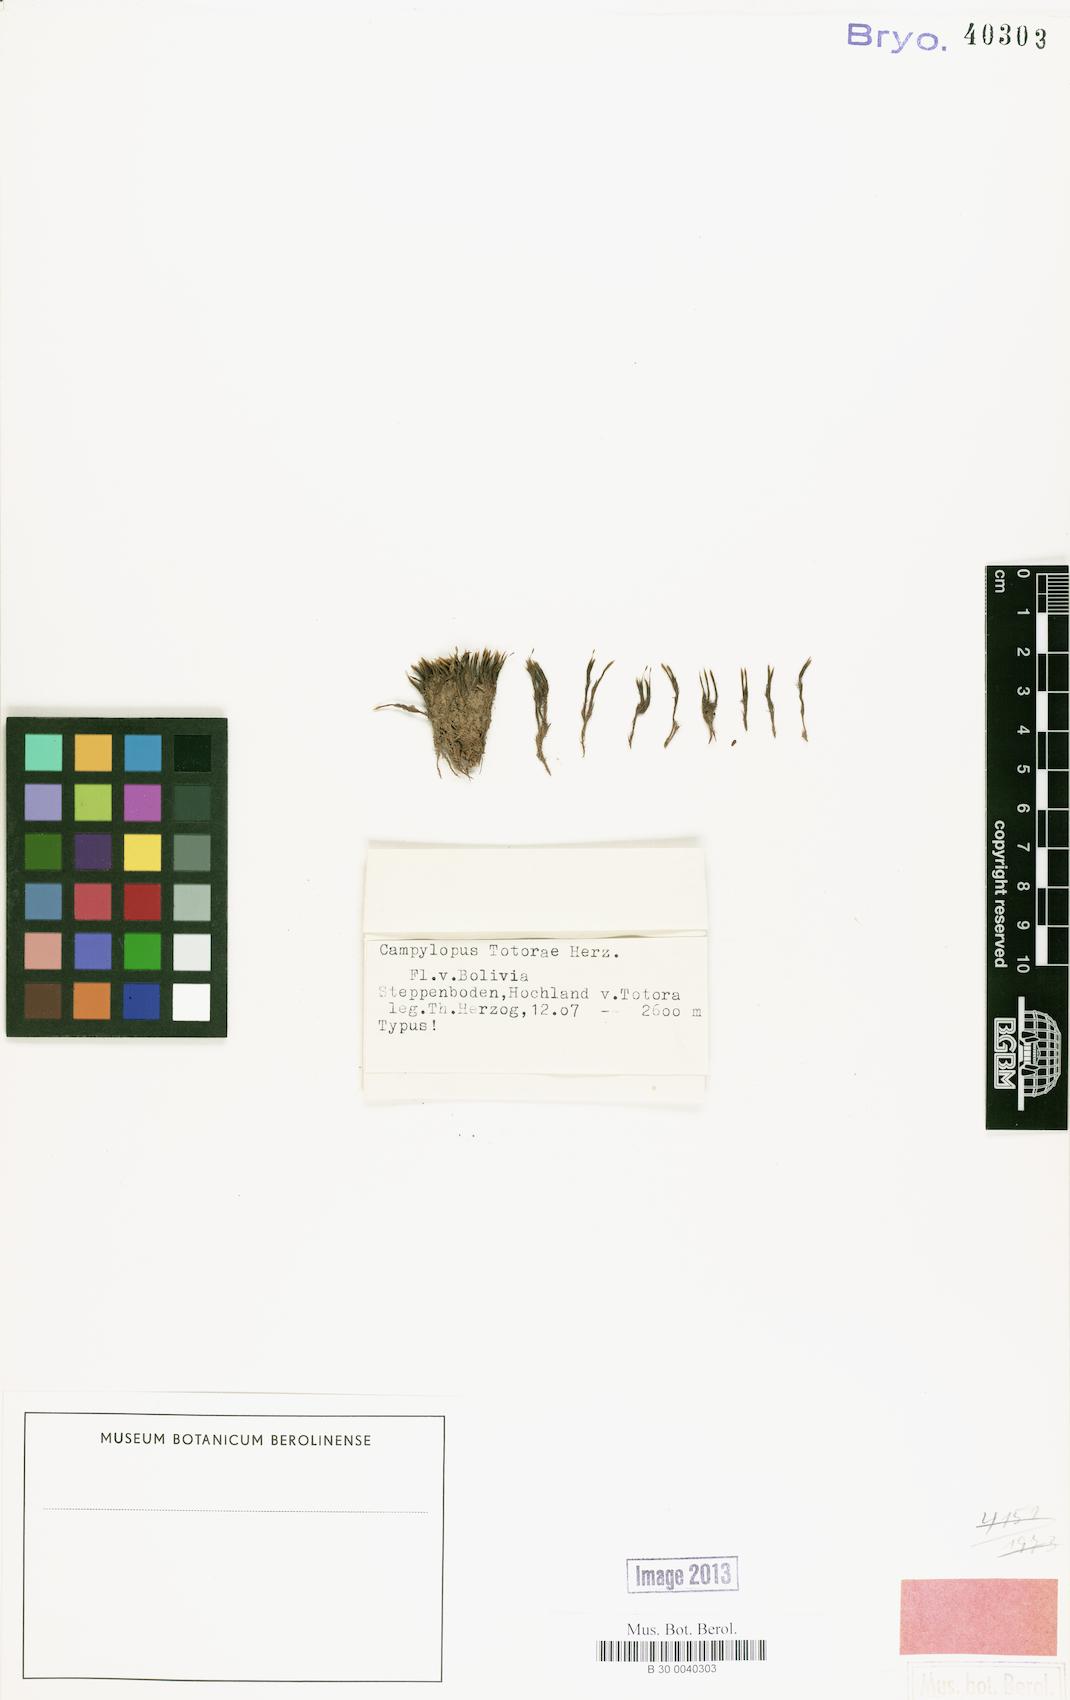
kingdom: Plantae
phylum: Bryophyta
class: Bryopsida
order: Dicranales
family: Leucobryaceae
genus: Campylopus
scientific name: Campylopus totorae
